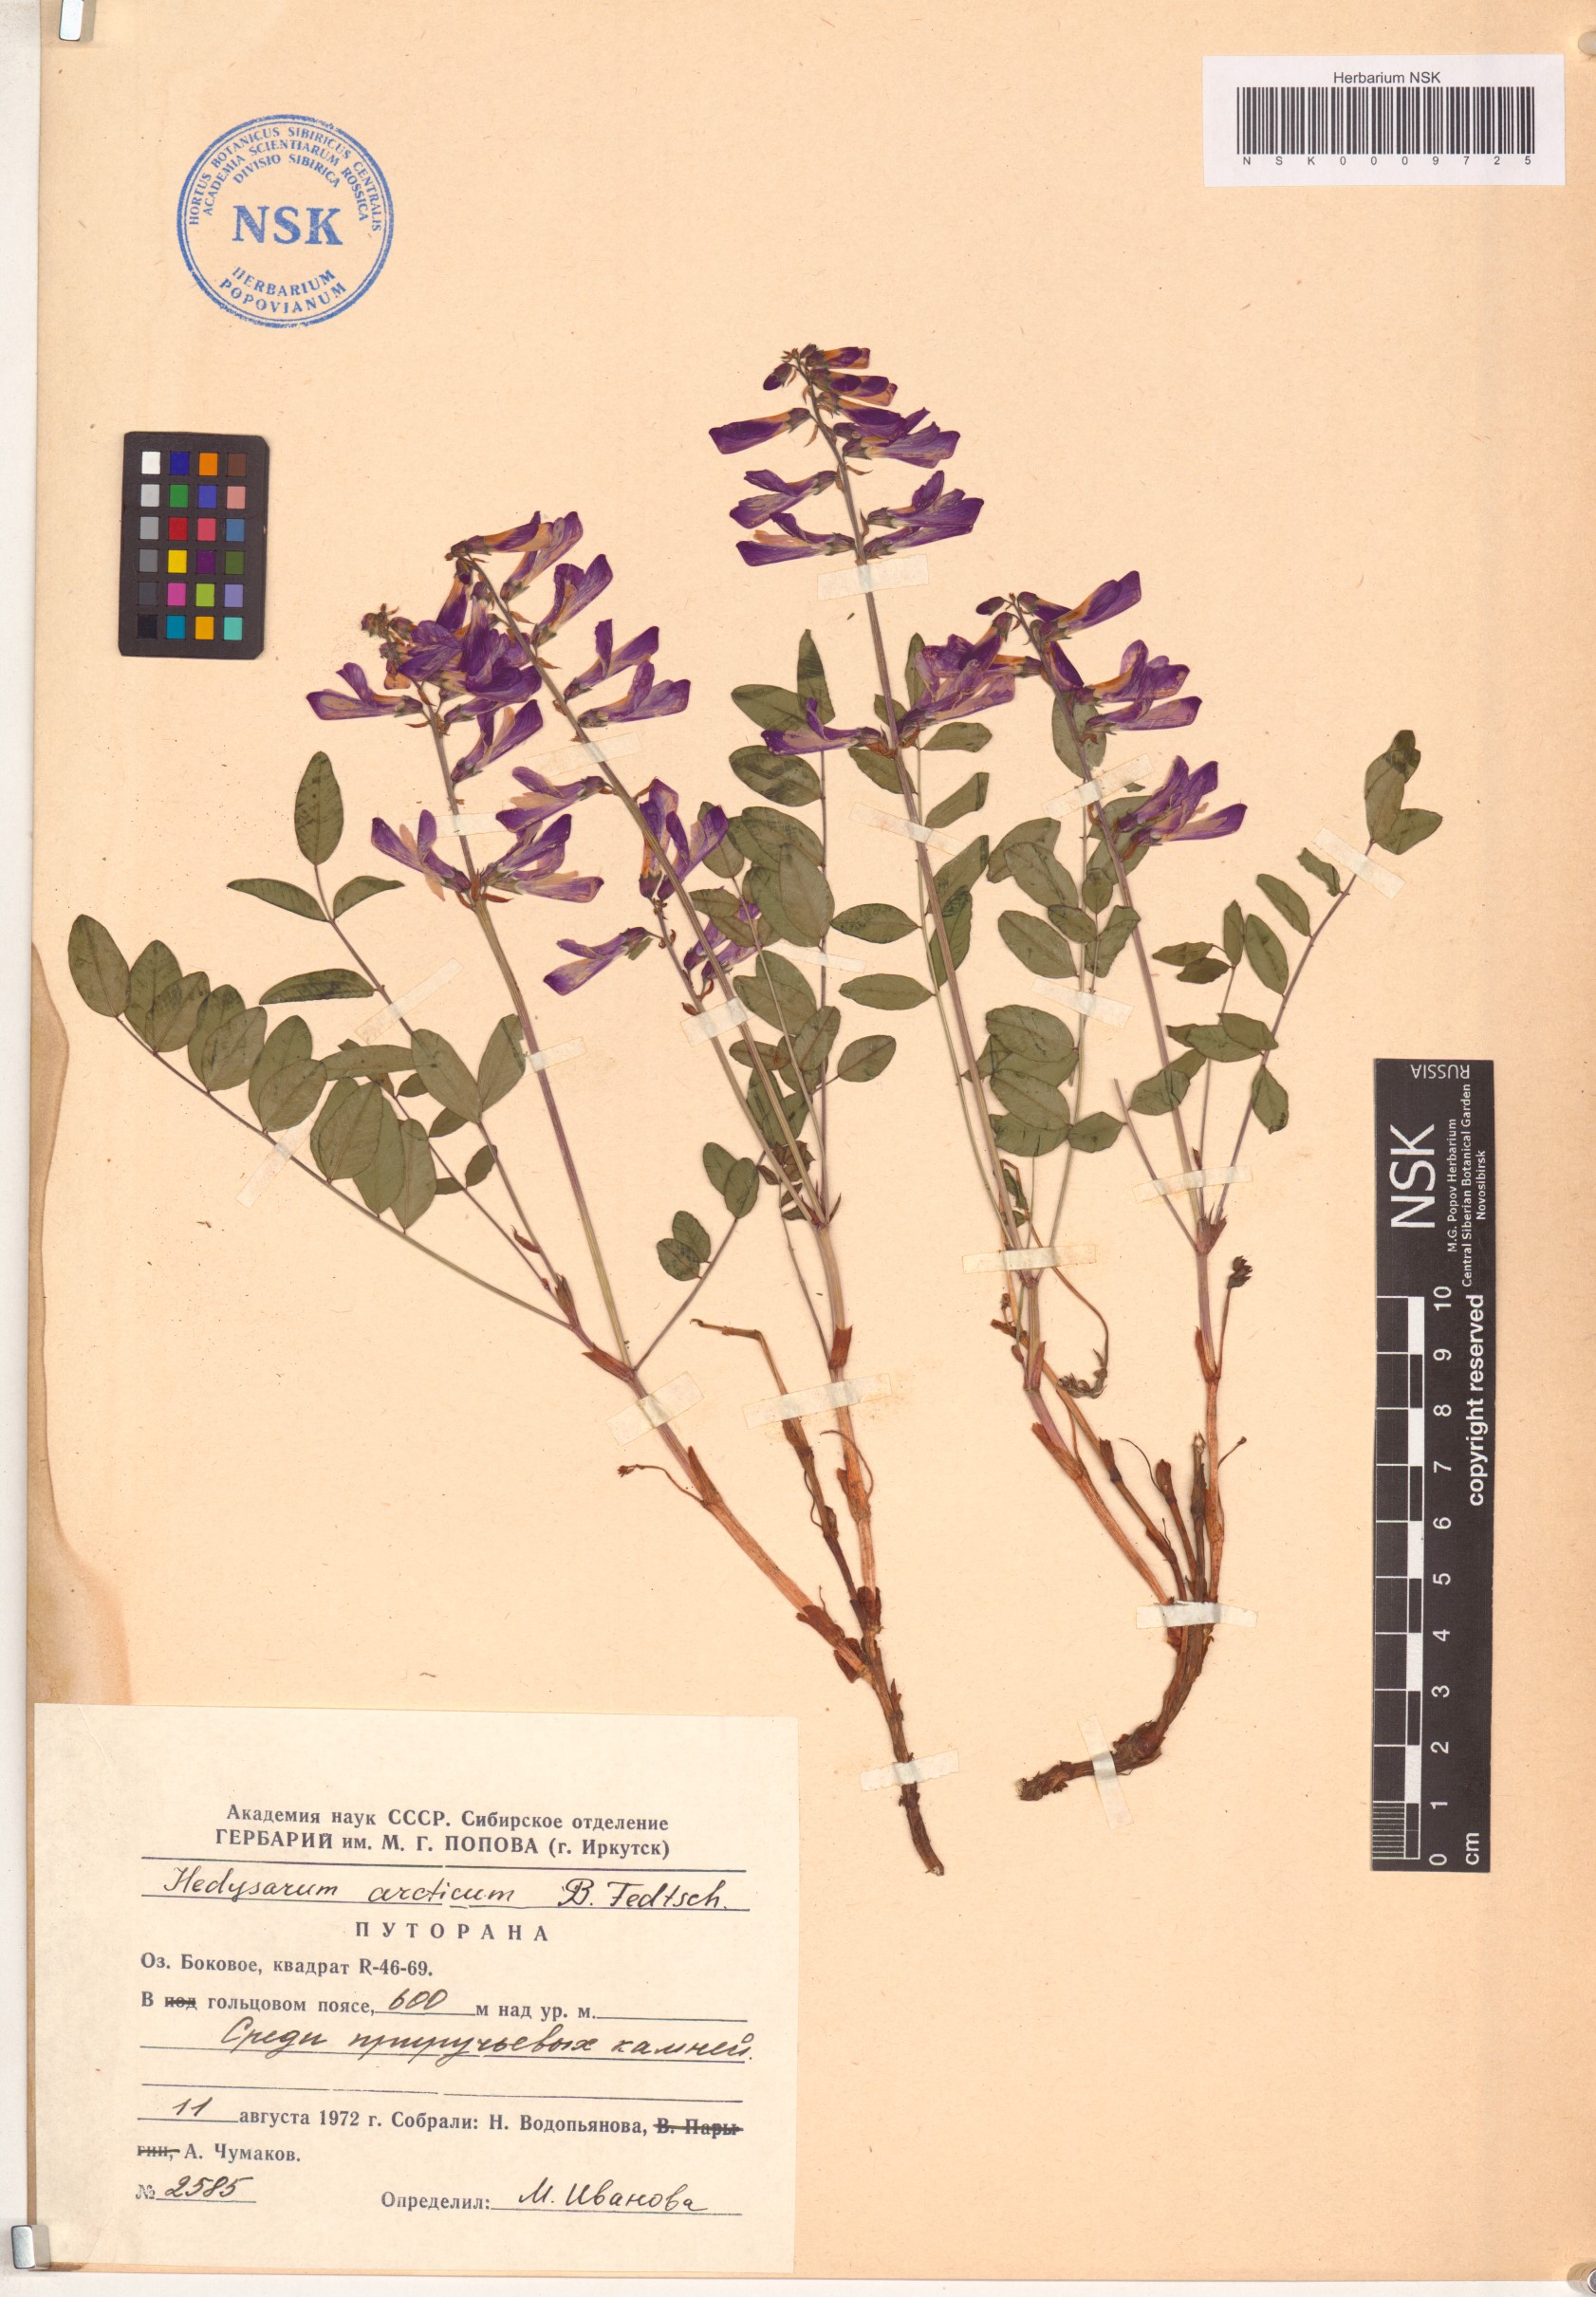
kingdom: Plantae
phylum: Tracheophyta
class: Magnoliopsida
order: Fabales
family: Fabaceae
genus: Hedysarum
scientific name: Hedysarum hedysaroides
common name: Alpine french-honeysuckle
